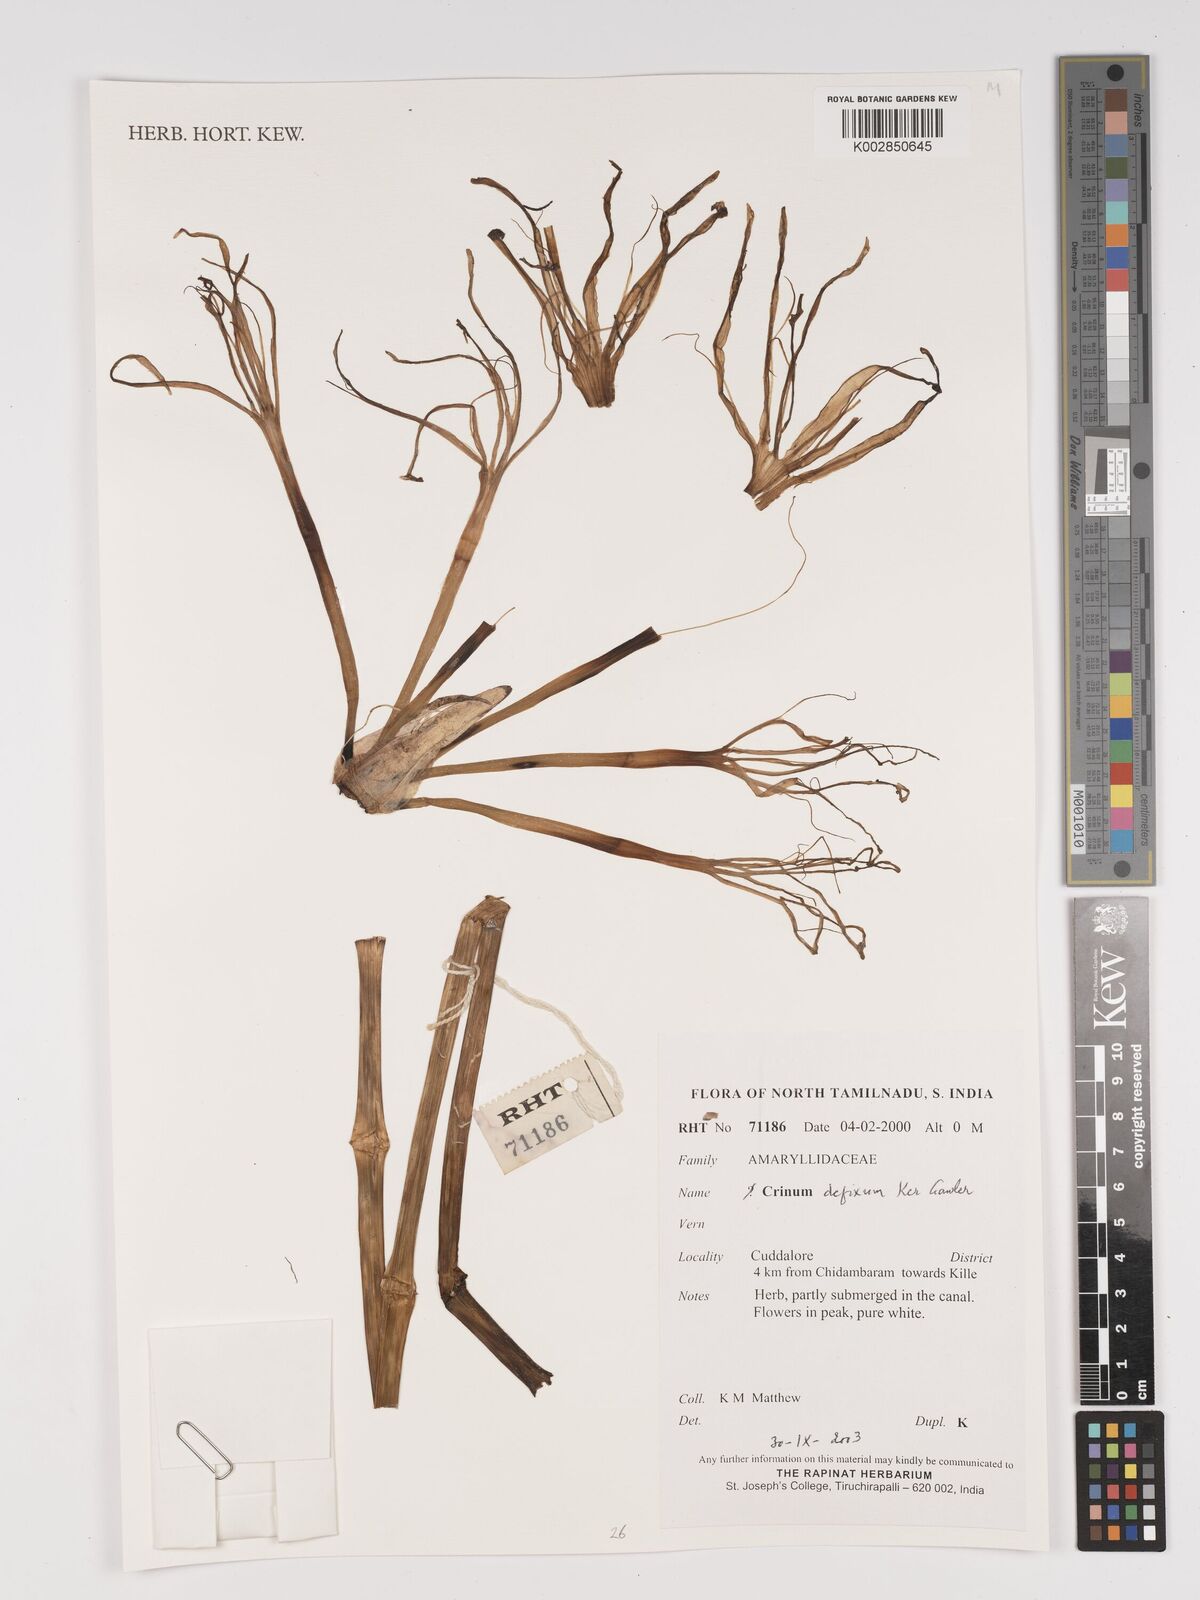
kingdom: Plantae
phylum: Tracheophyta
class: Liliopsida
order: Asparagales
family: Amaryllidaceae
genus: Crinum
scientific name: Crinum defixum
